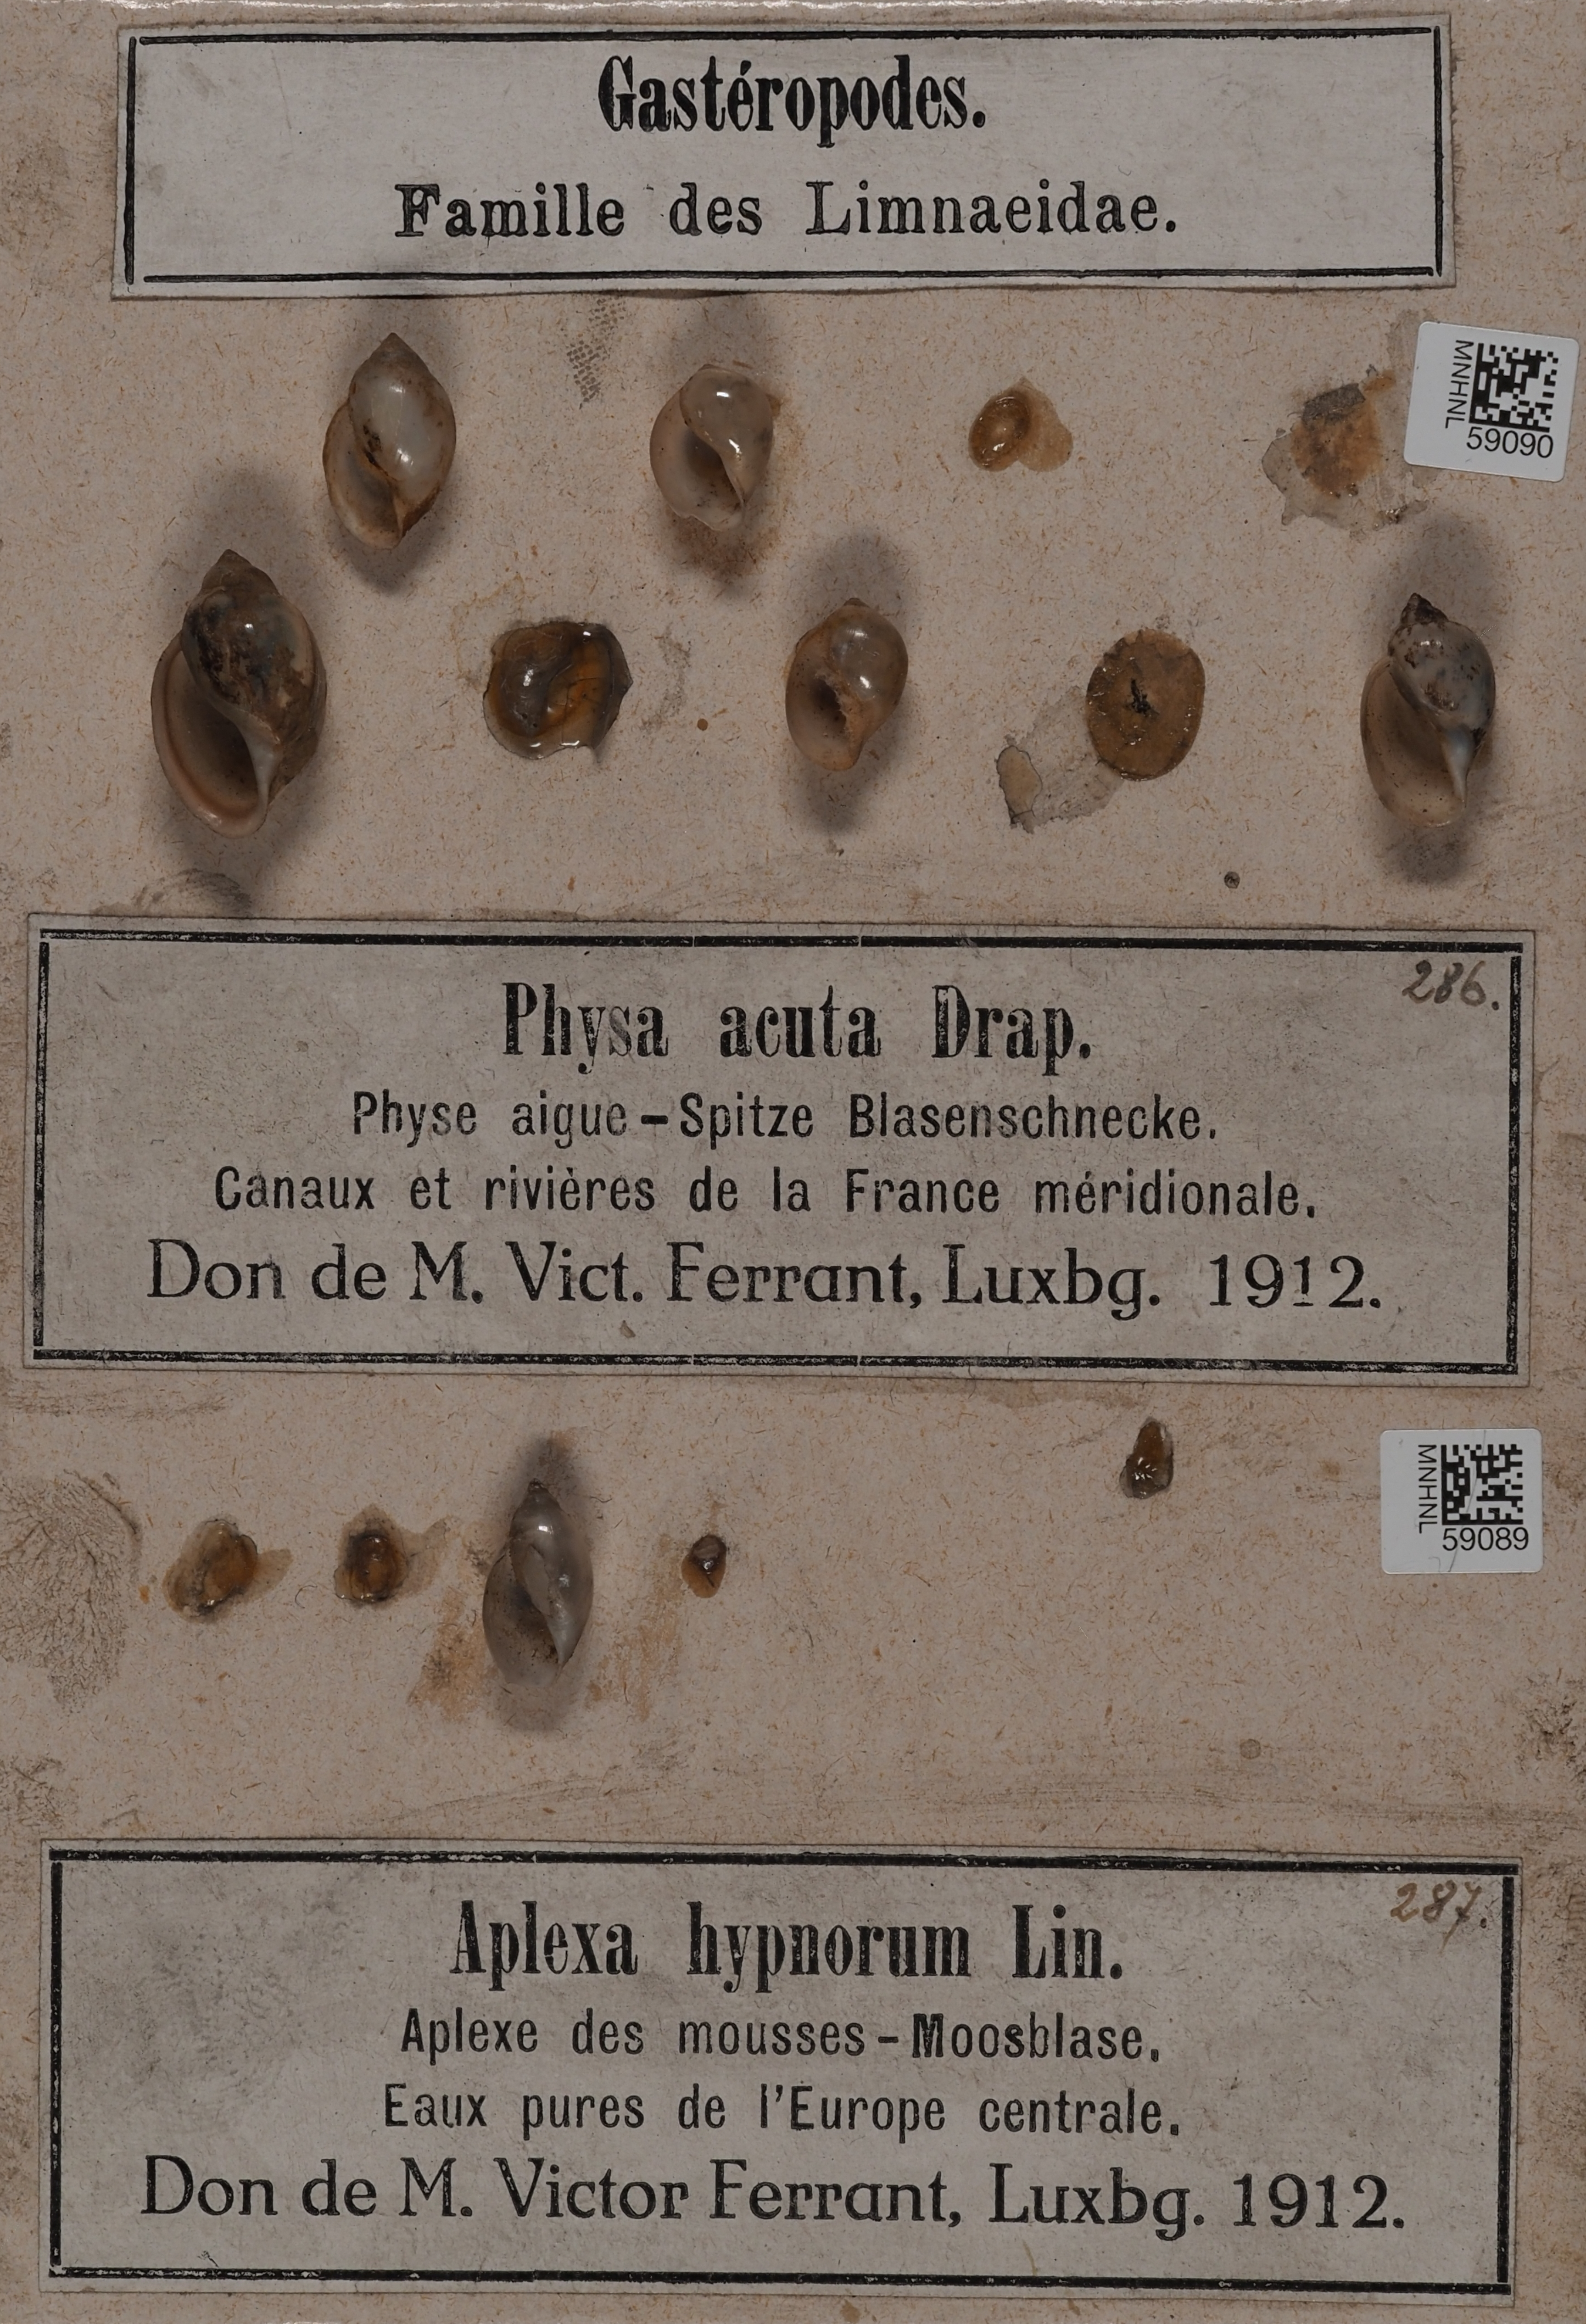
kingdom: Animalia
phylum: Mollusca
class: Gastropoda
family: Physidae
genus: Physella
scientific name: Physella acuta
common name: European physa
